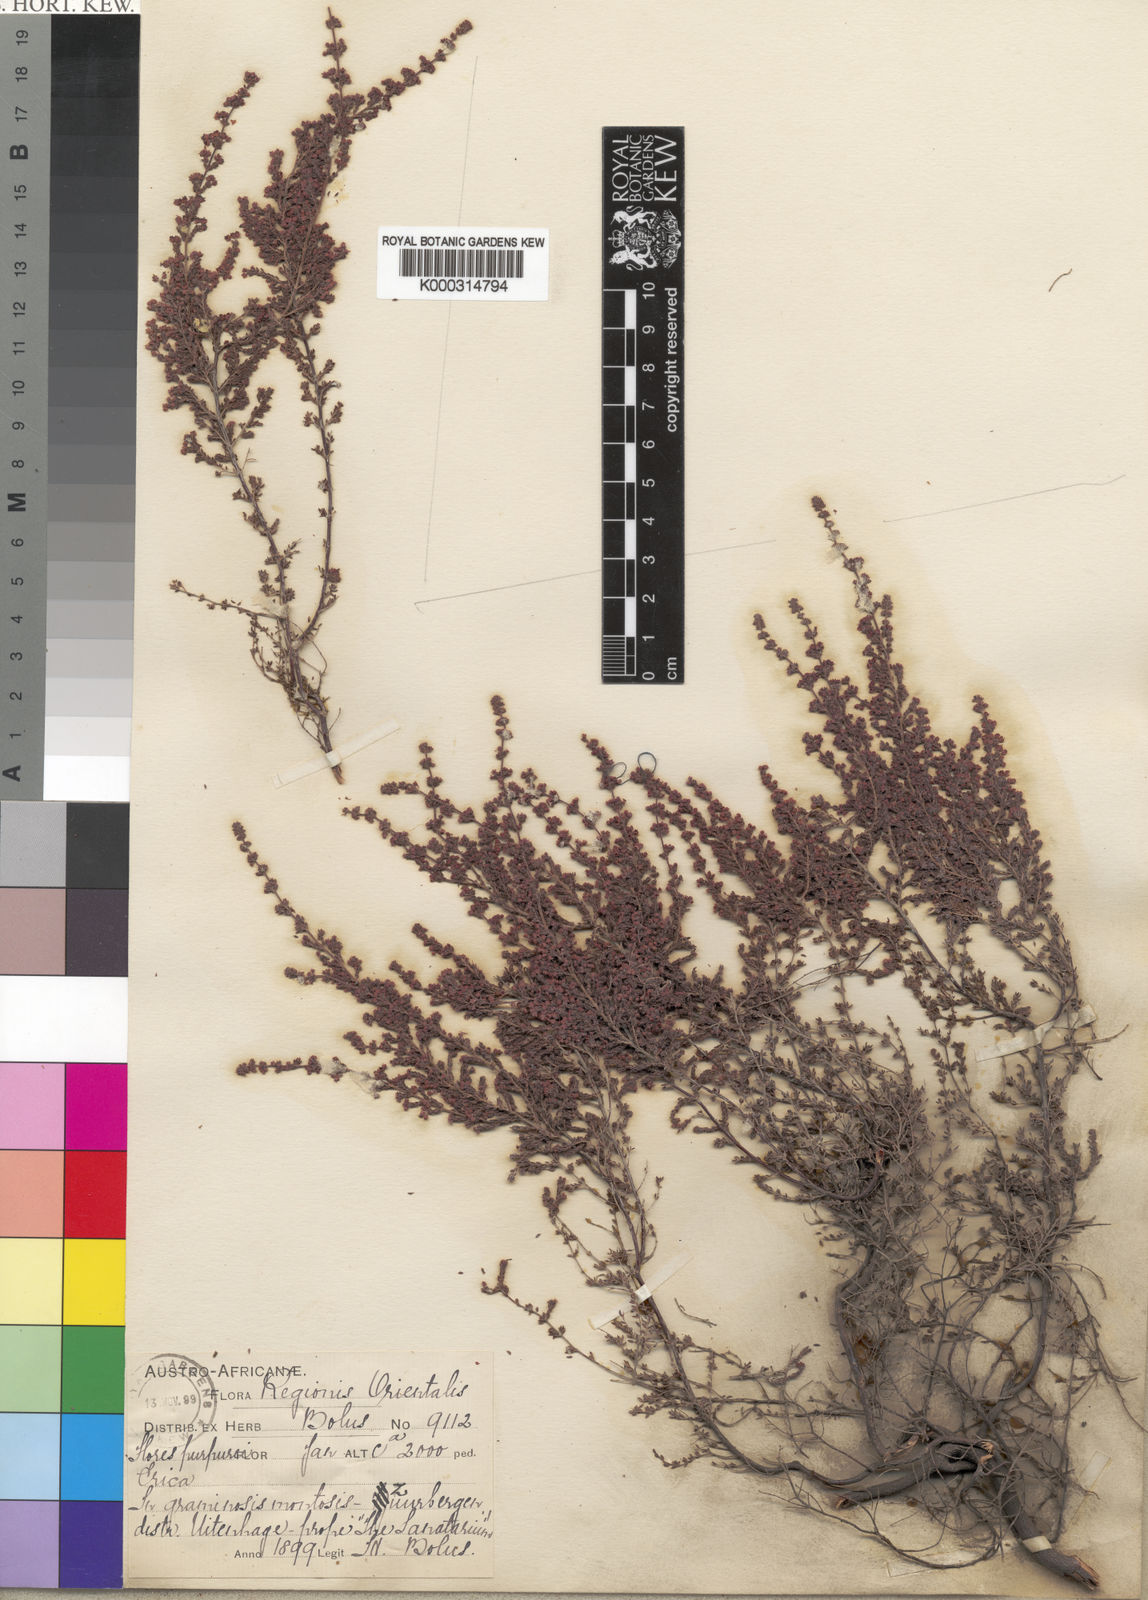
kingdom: Plantae
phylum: Tracheophyta
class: Magnoliopsida
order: Ericales
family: Ericaceae
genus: Erica
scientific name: Erica copiosa
